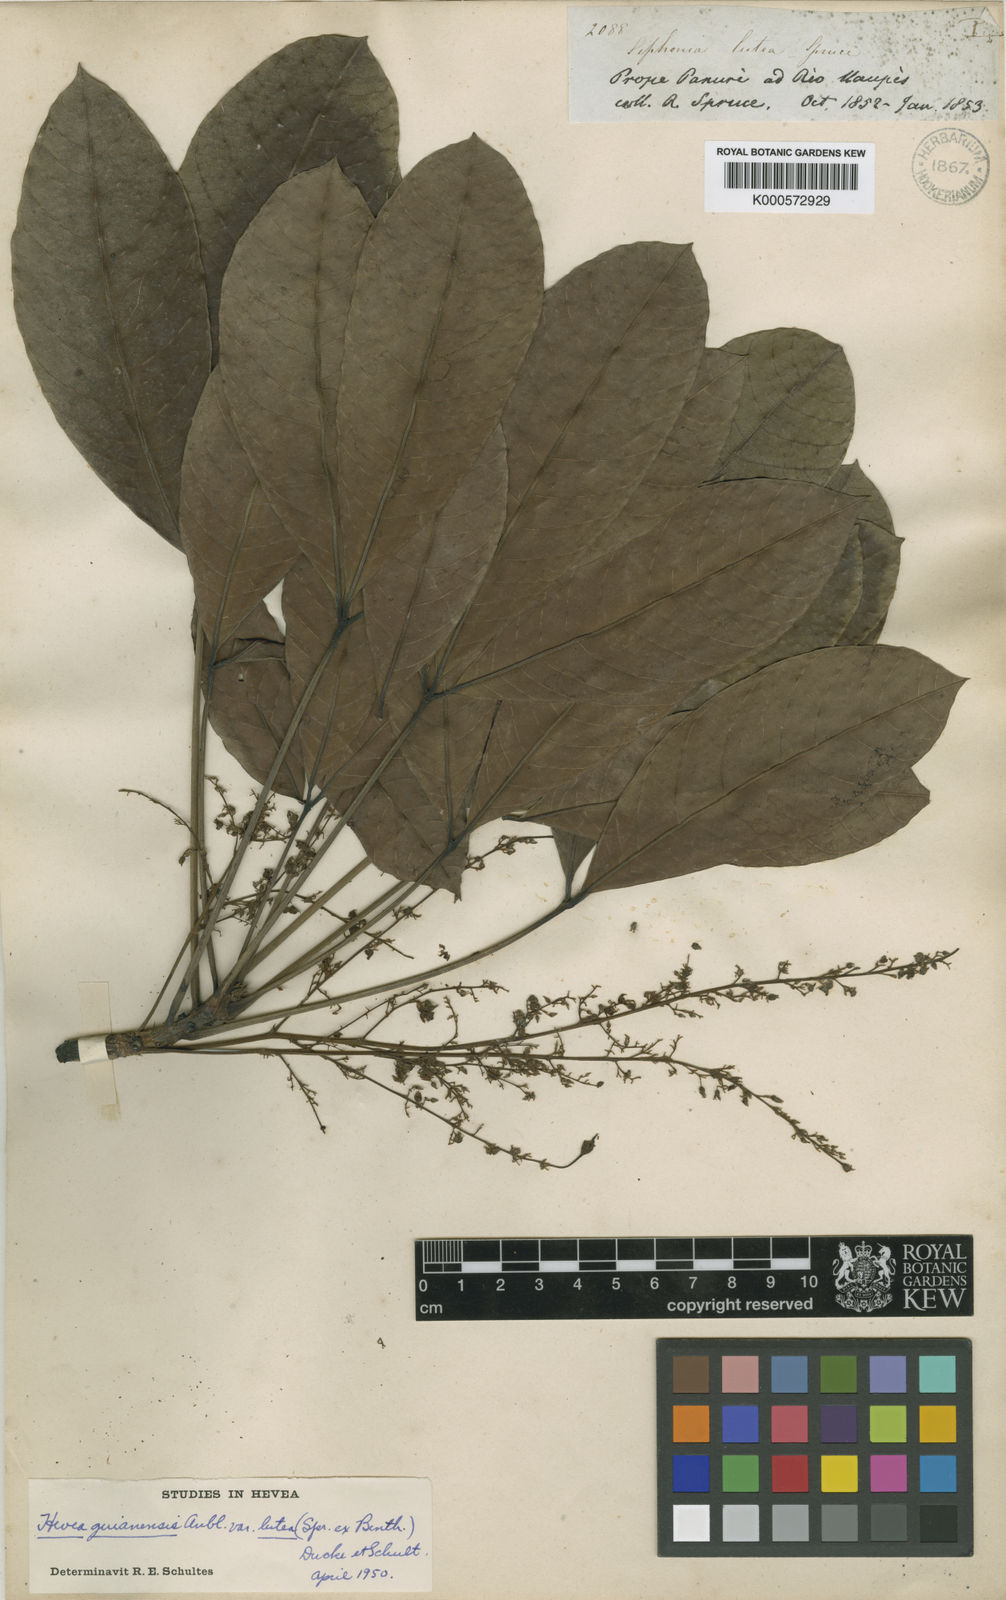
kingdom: Plantae
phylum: Tracheophyta
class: Magnoliopsida
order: Malpighiales
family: Euphorbiaceae
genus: Hevea
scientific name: Hevea
